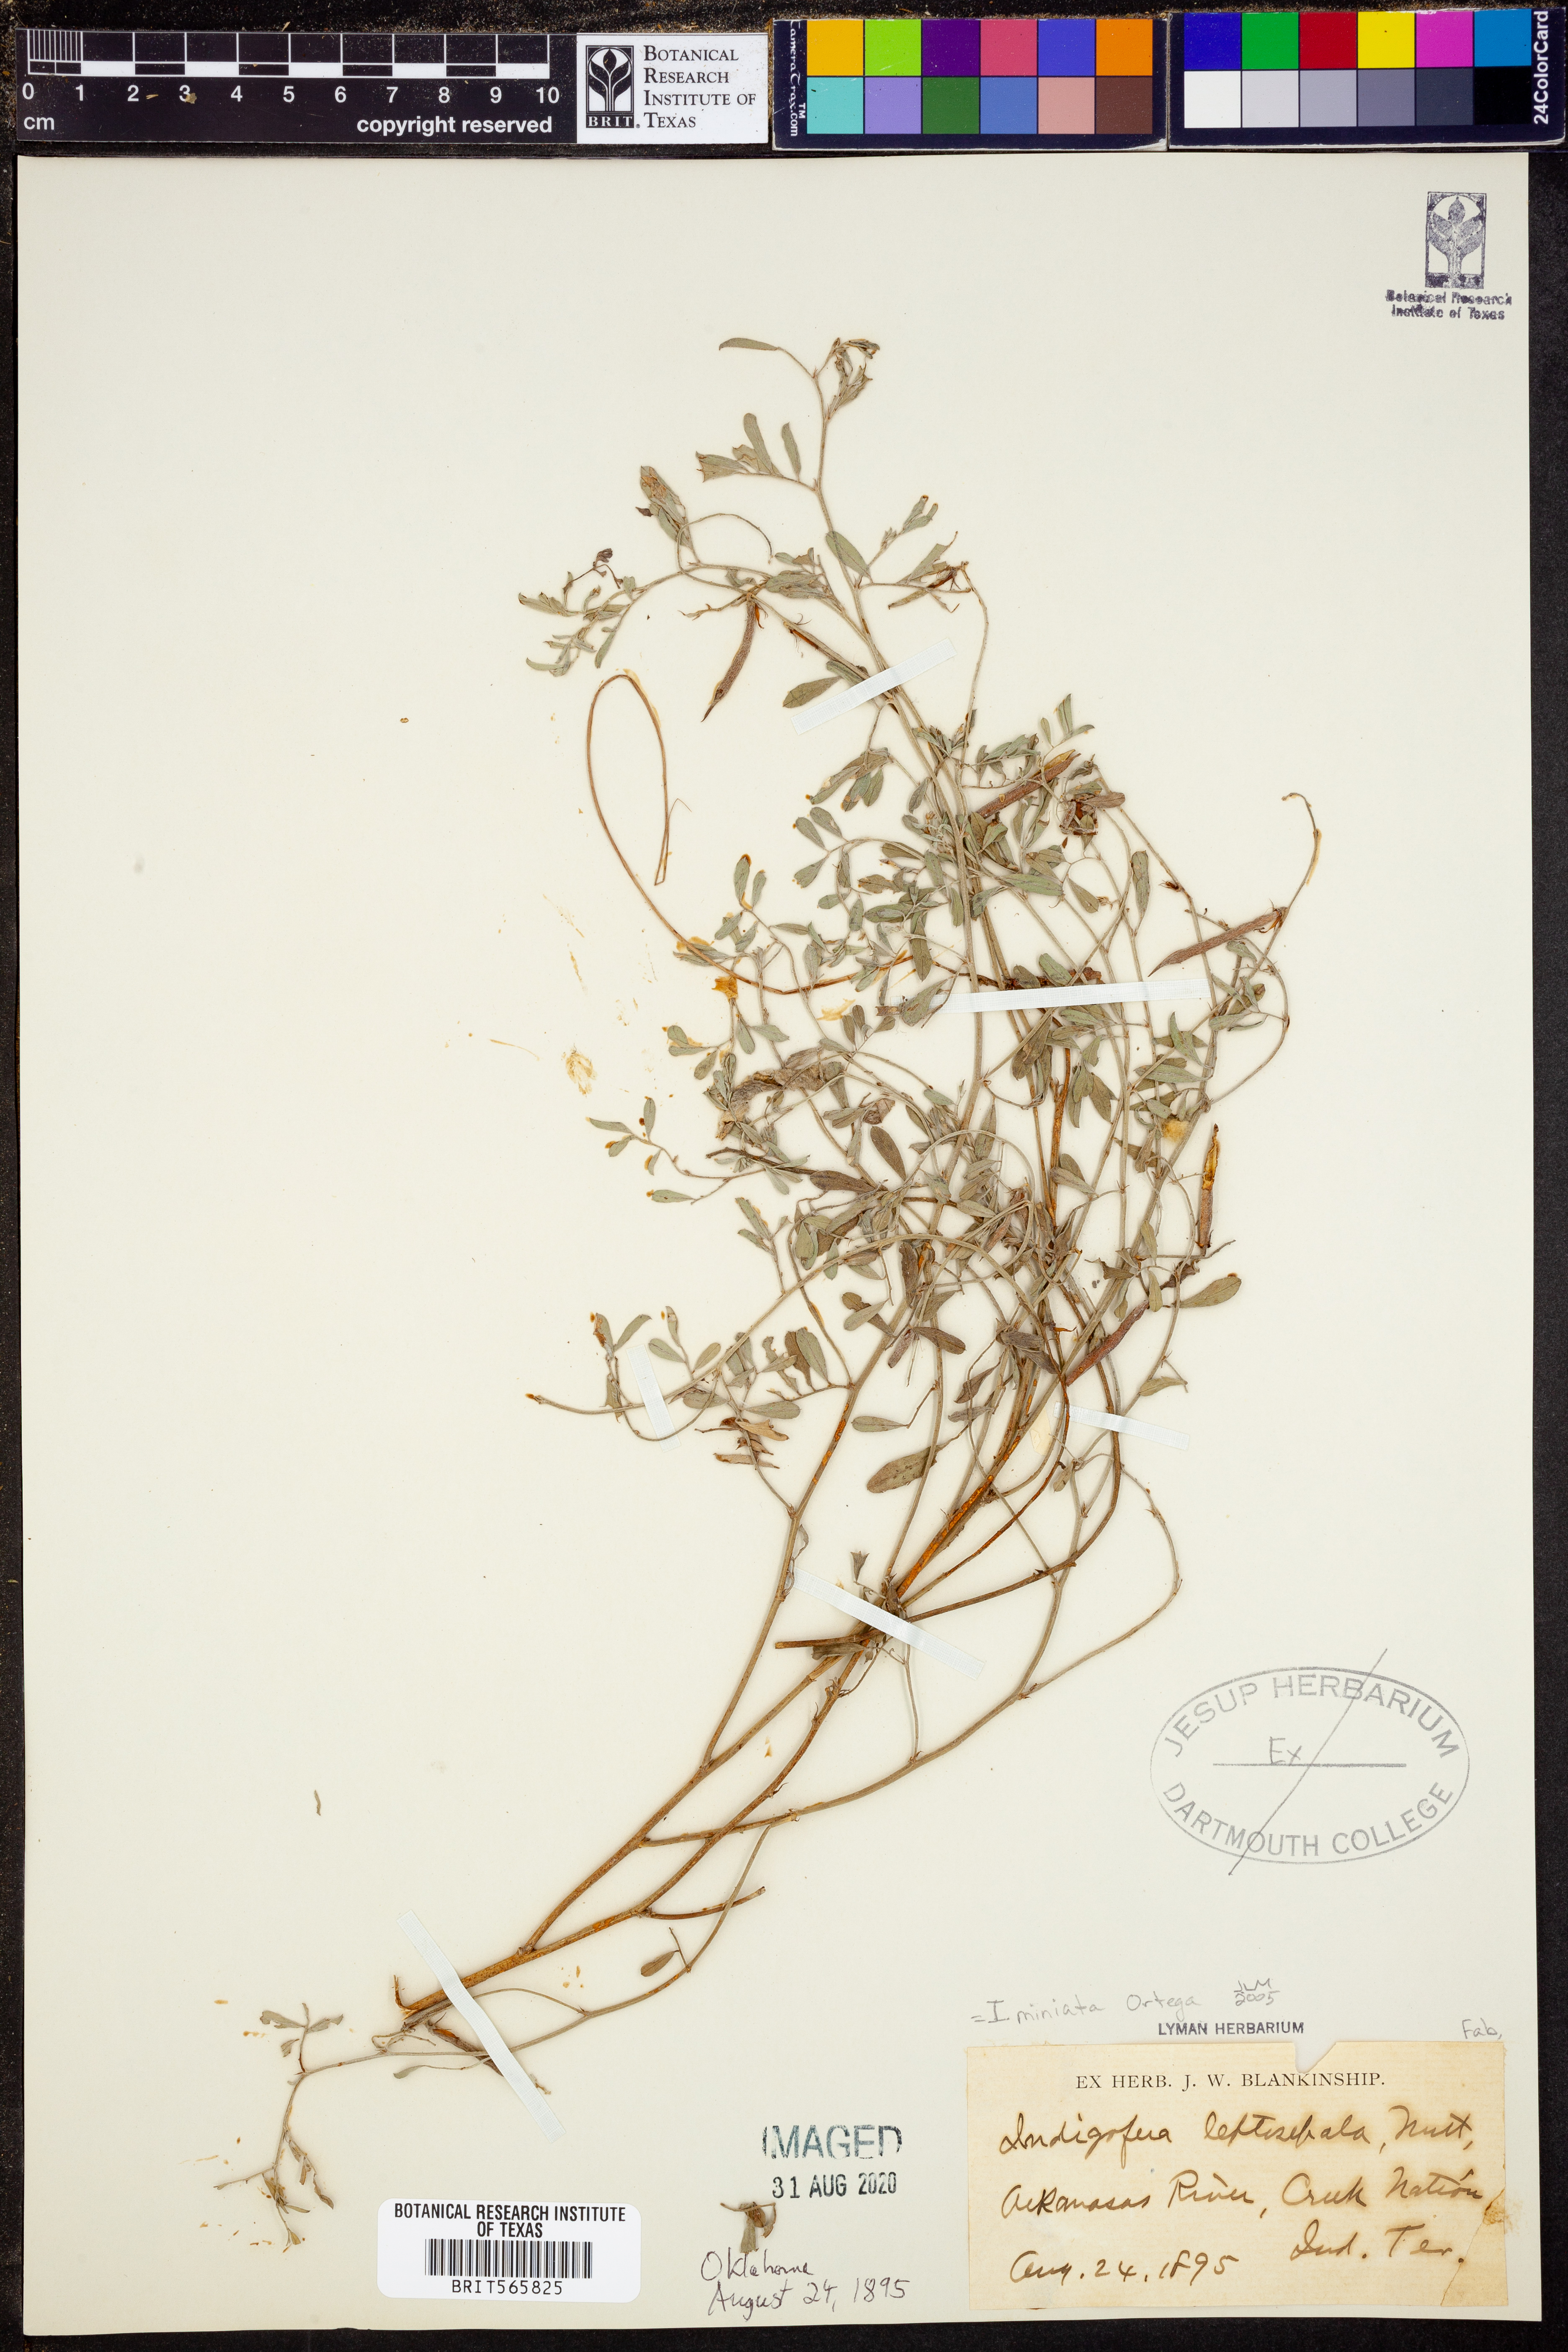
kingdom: Plantae
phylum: Tracheophyta
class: Magnoliopsida
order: Fabales
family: Fabaceae
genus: Indigofera
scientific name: Indigofera miniata
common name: Coast indigo
